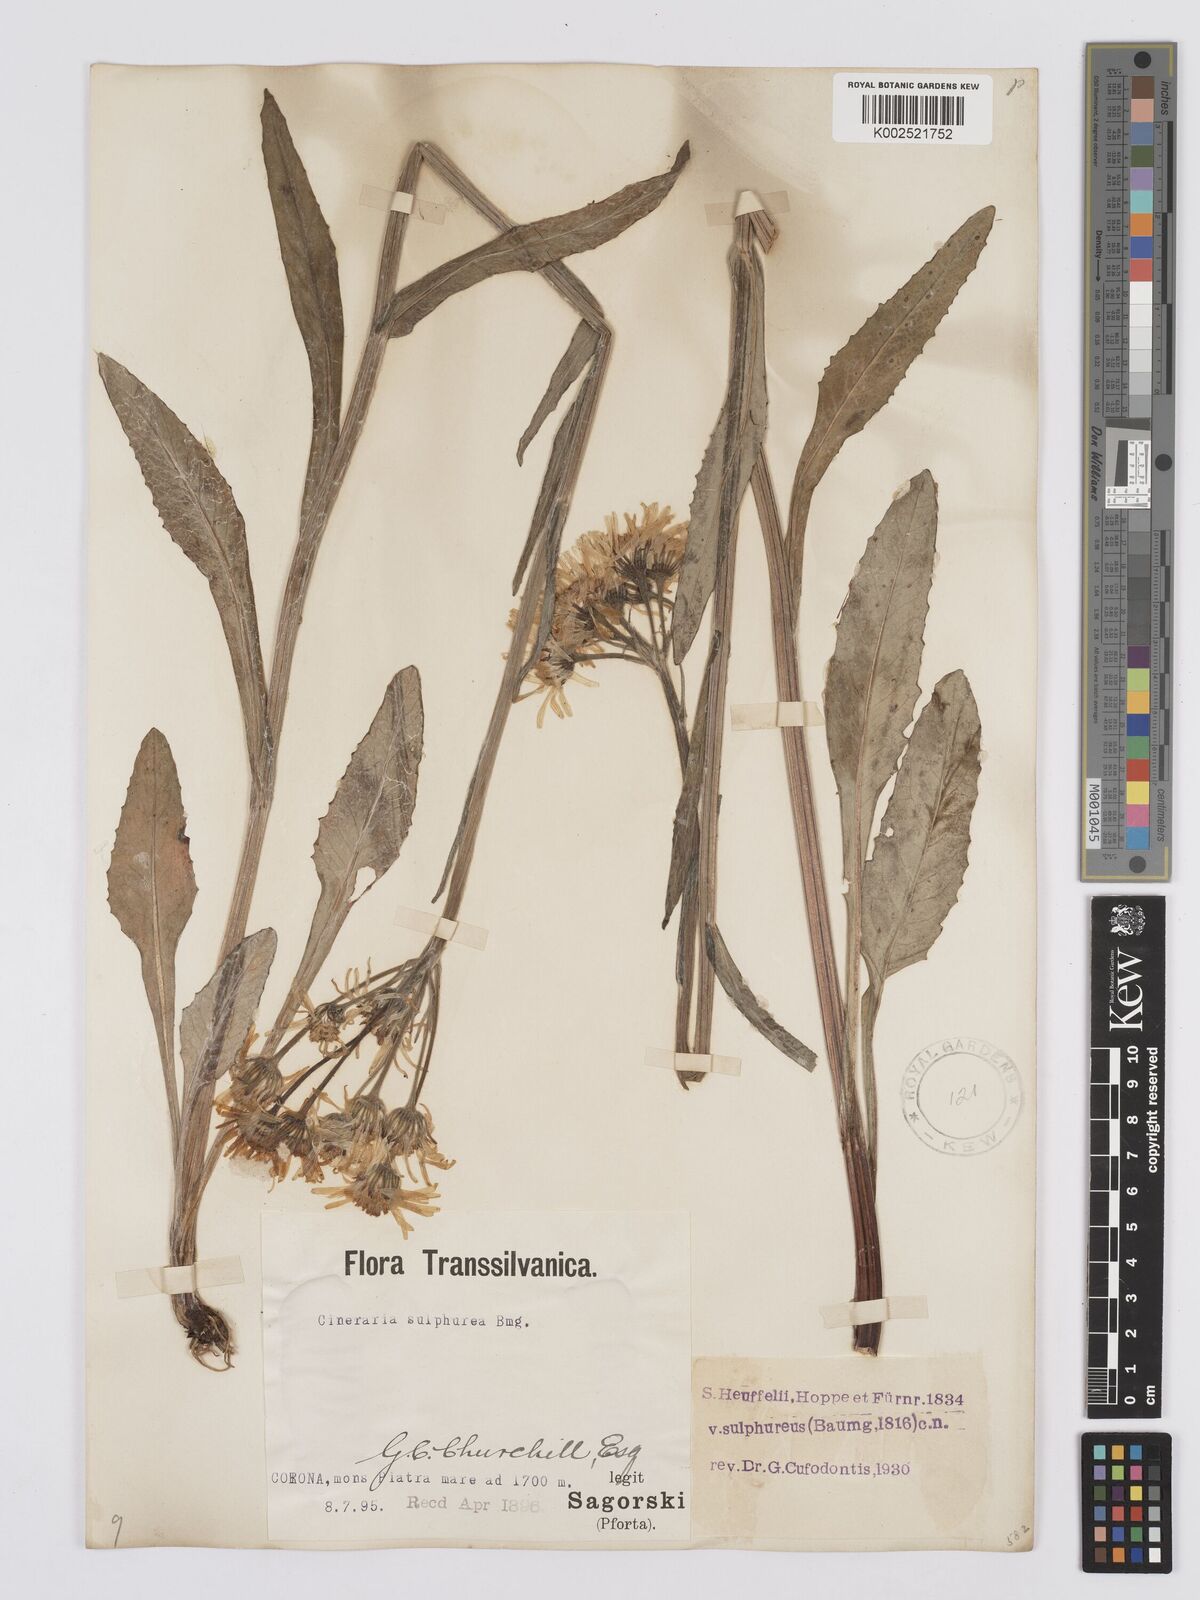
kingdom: Plantae
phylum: Tracheophyta
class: Magnoliopsida
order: Asterales
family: Asteraceae
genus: Tephroseris
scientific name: Tephroseris papposa
